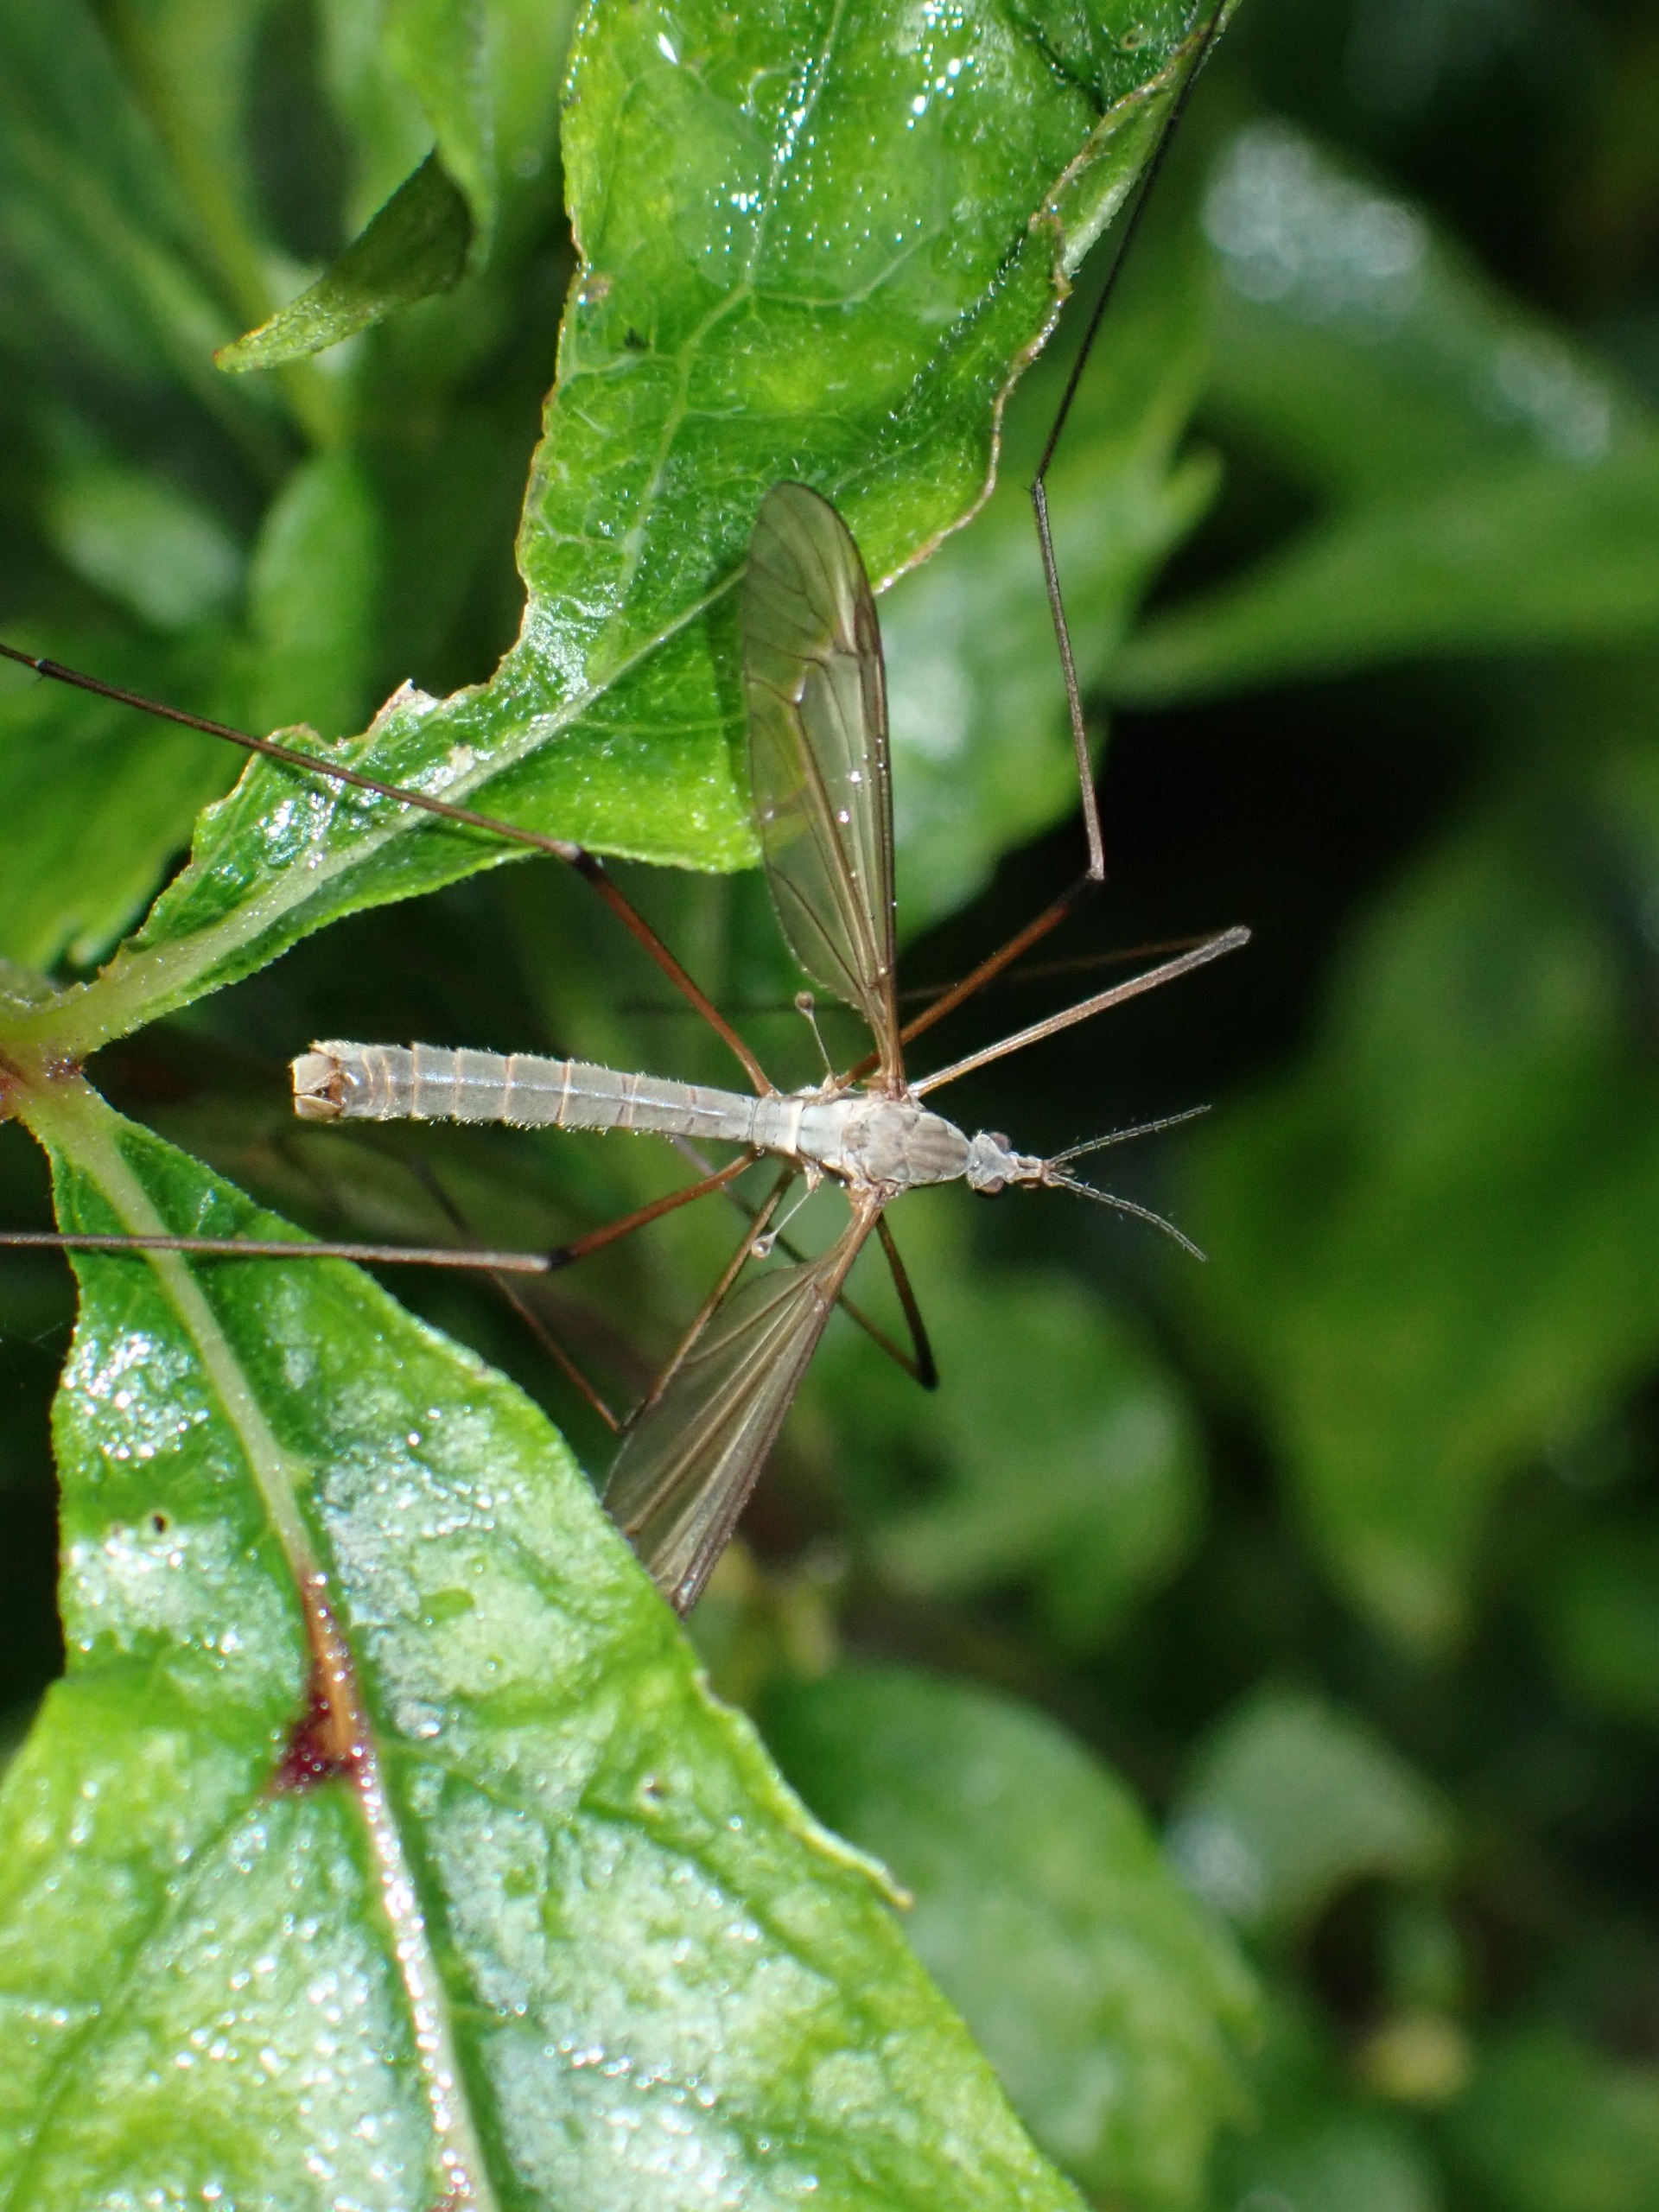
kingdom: Animalia
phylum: Arthropoda
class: Insecta
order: Diptera
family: Tipulidae
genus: Tipula
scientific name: Tipula paludosa
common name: Mosestankelben
